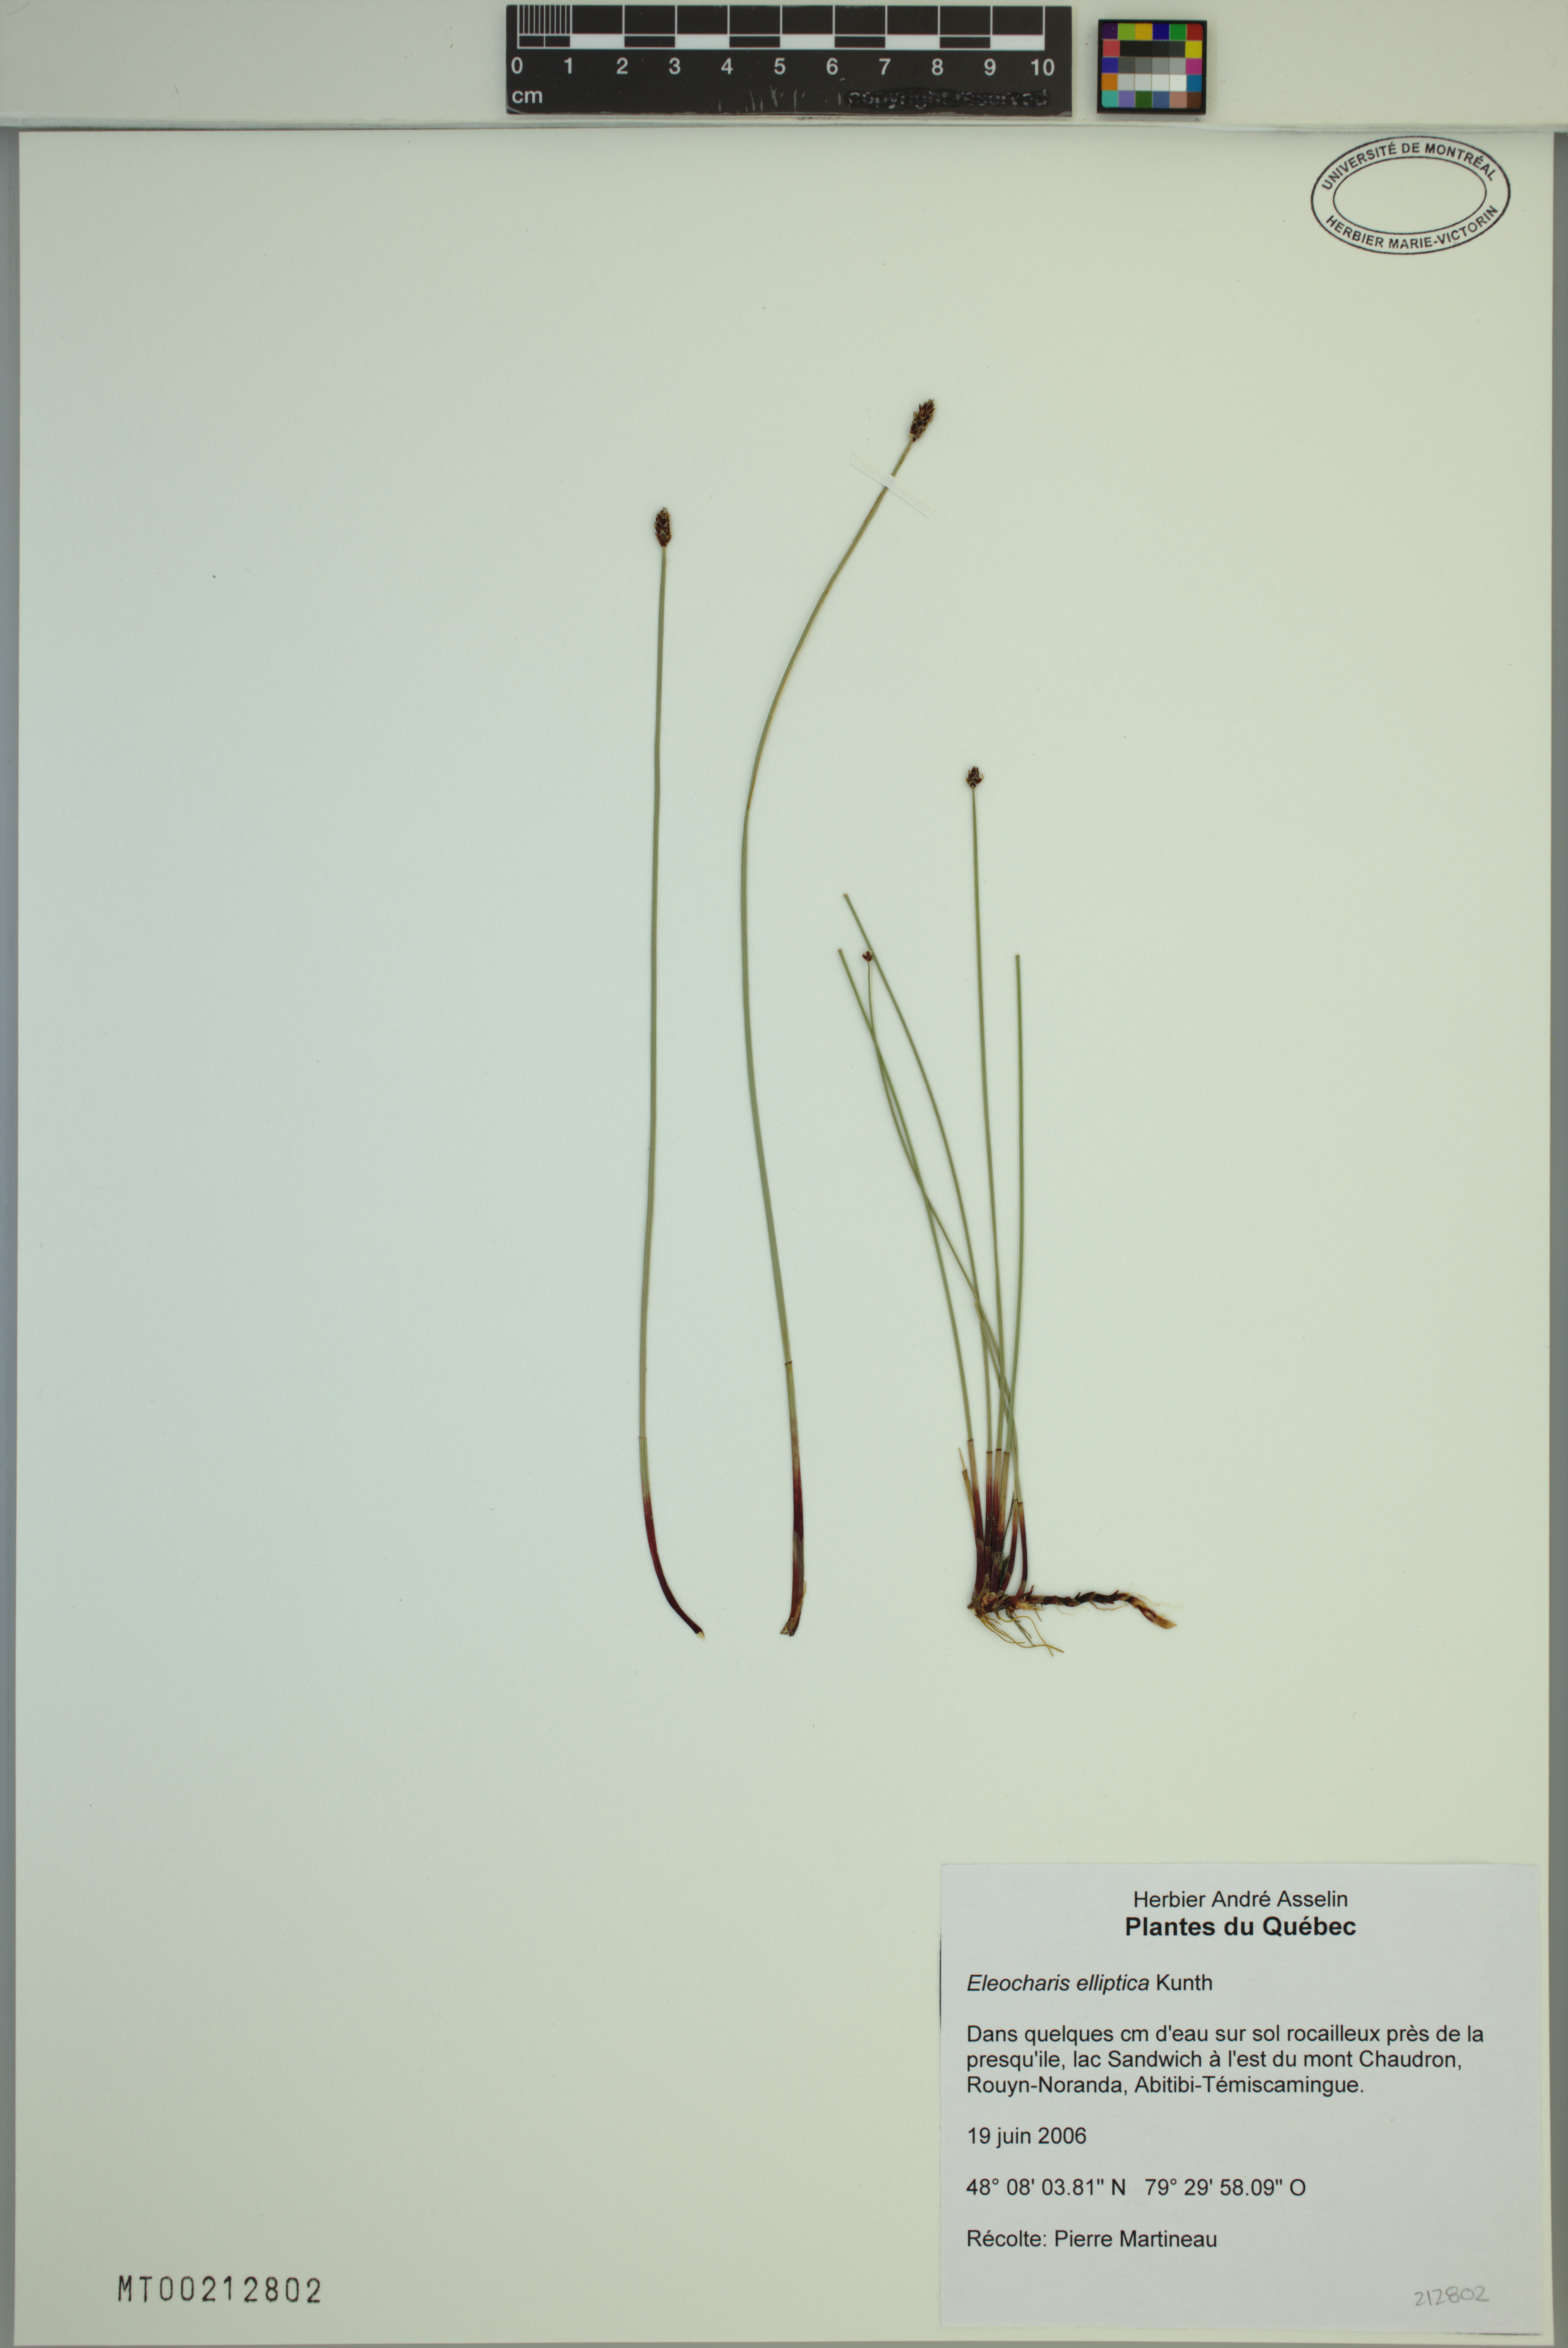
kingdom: Plantae
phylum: Tracheophyta
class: Liliopsida
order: Poales
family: Cyperaceae
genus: Eleocharis
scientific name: Eleocharis elliptica
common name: Capitate spikerush
